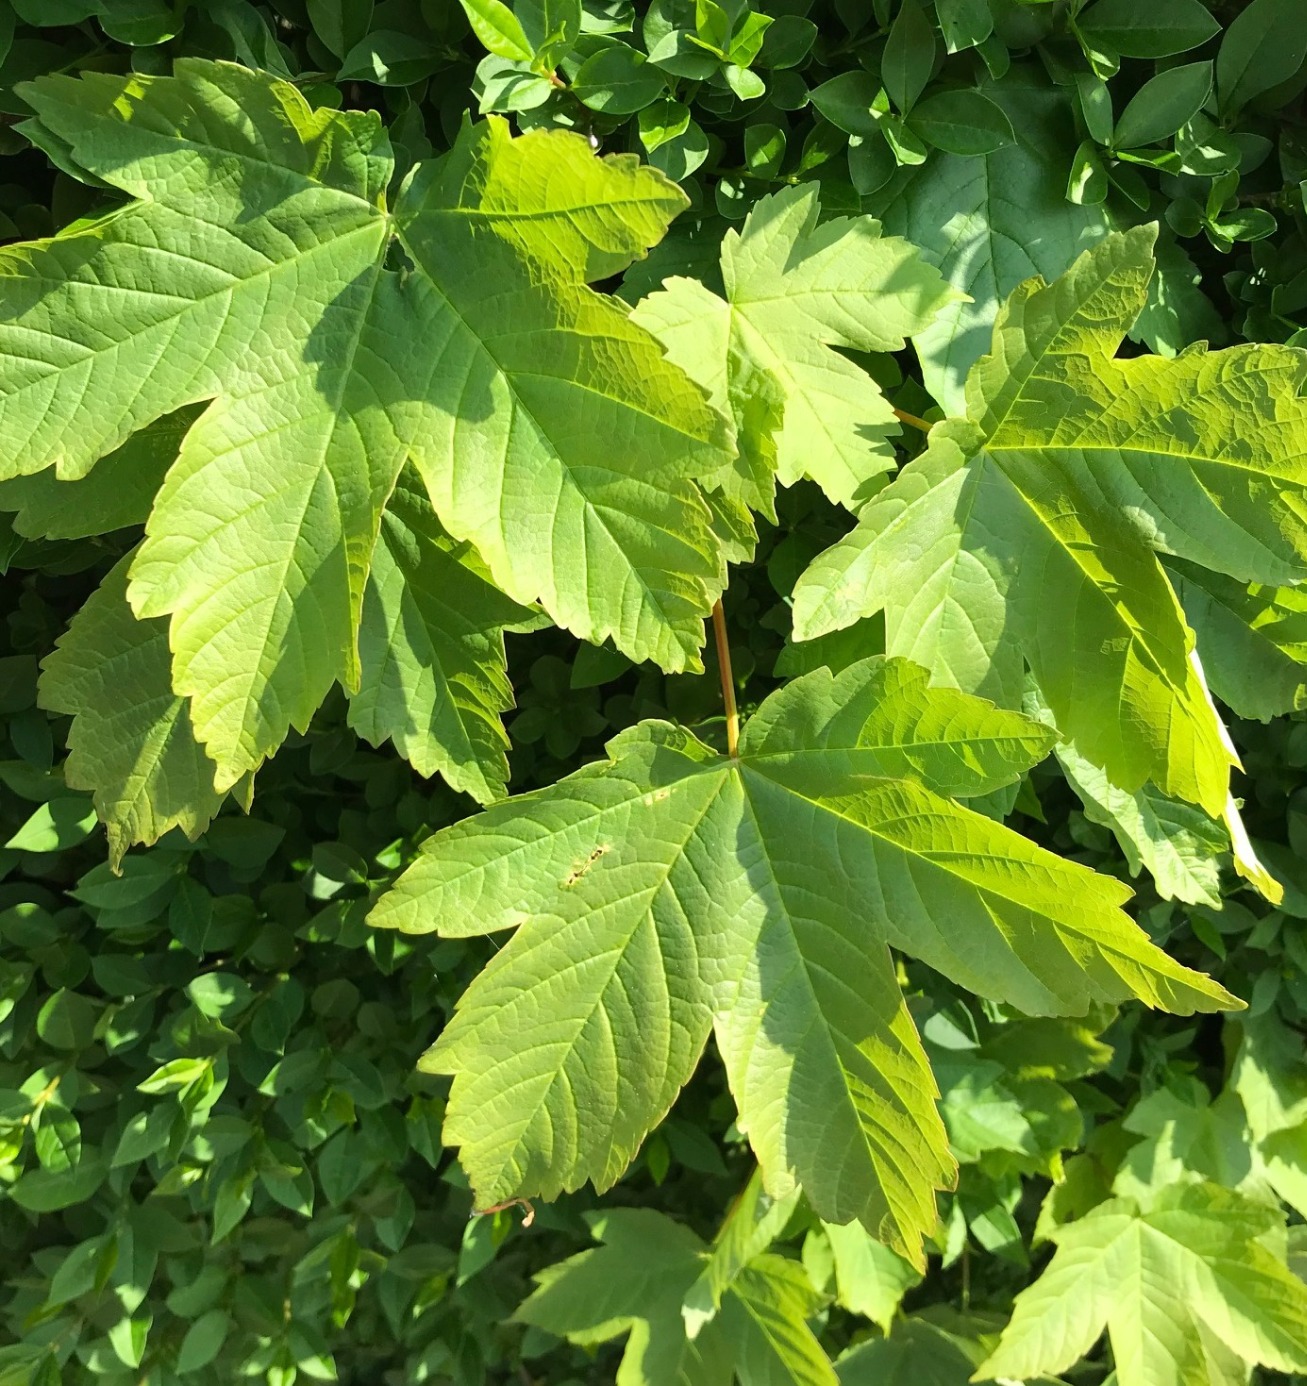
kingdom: Plantae
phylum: Tracheophyta
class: Magnoliopsida
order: Sapindales
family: Sapindaceae
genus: Acer
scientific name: Acer pseudoplatanus
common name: Ahorn
